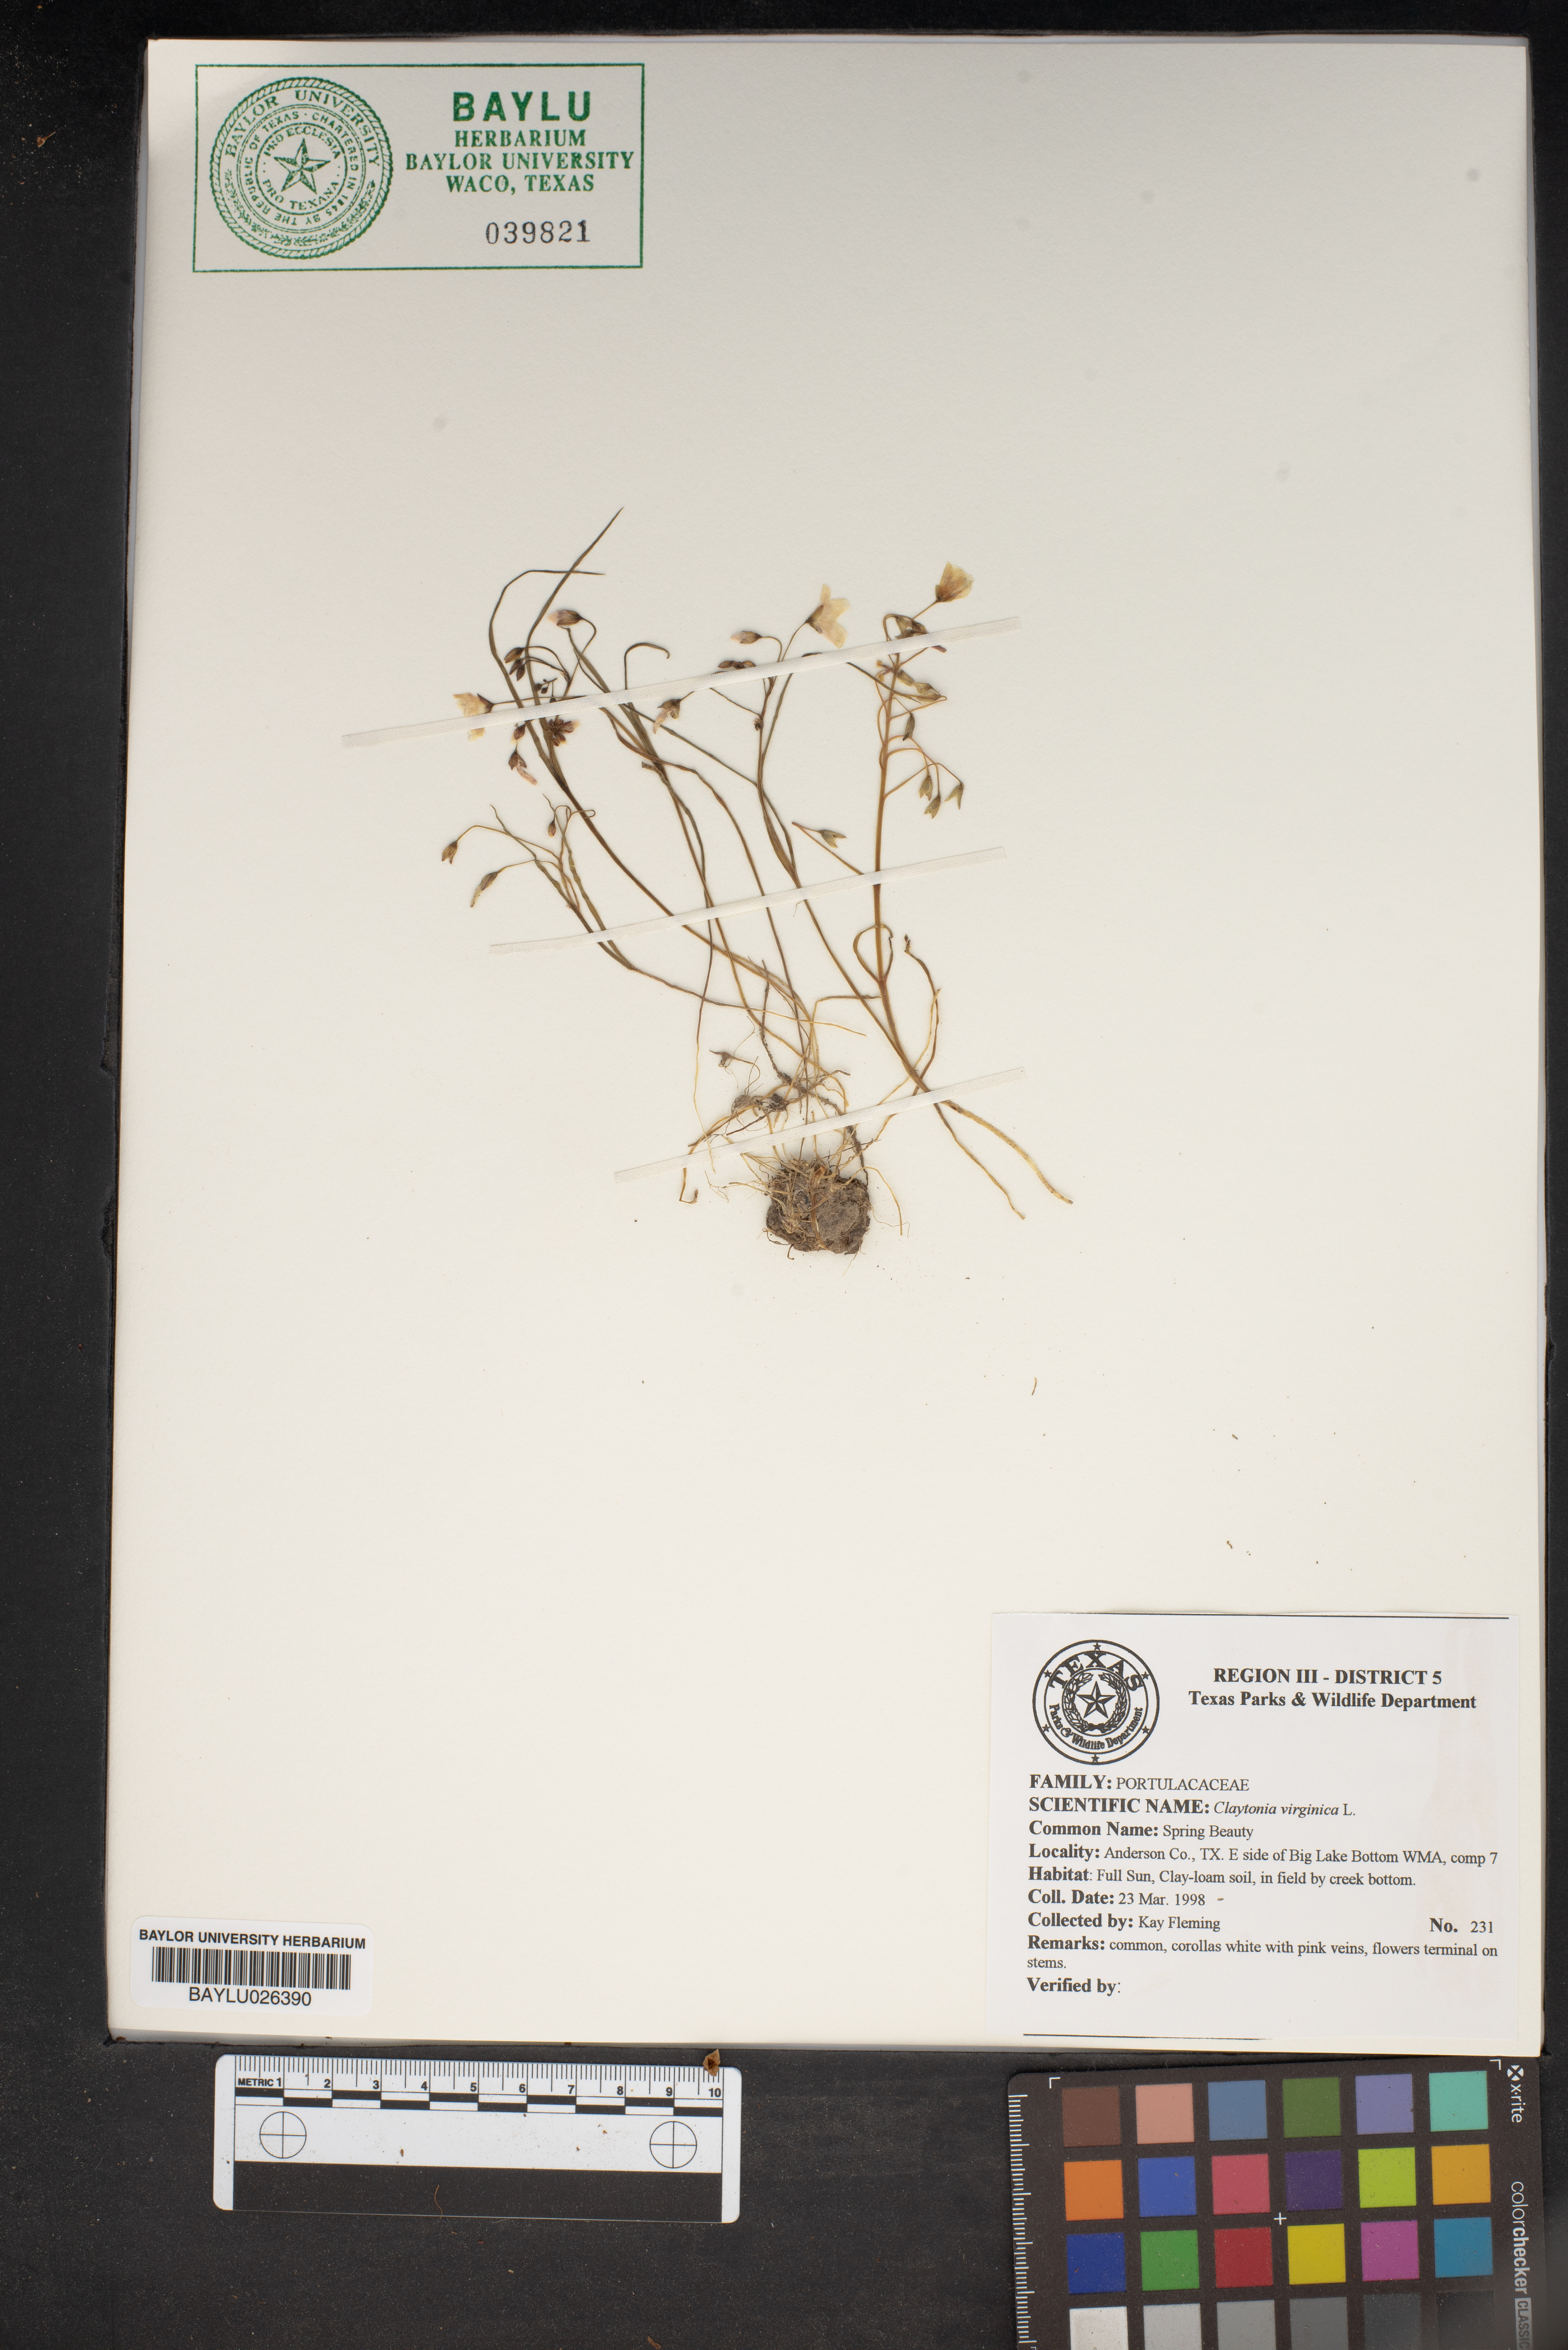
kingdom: Plantae
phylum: Tracheophyta
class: Magnoliopsida
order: Caryophyllales
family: Montiaceae
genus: Claytonia
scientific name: Claytonia virginica
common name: Virginia springbeauty
